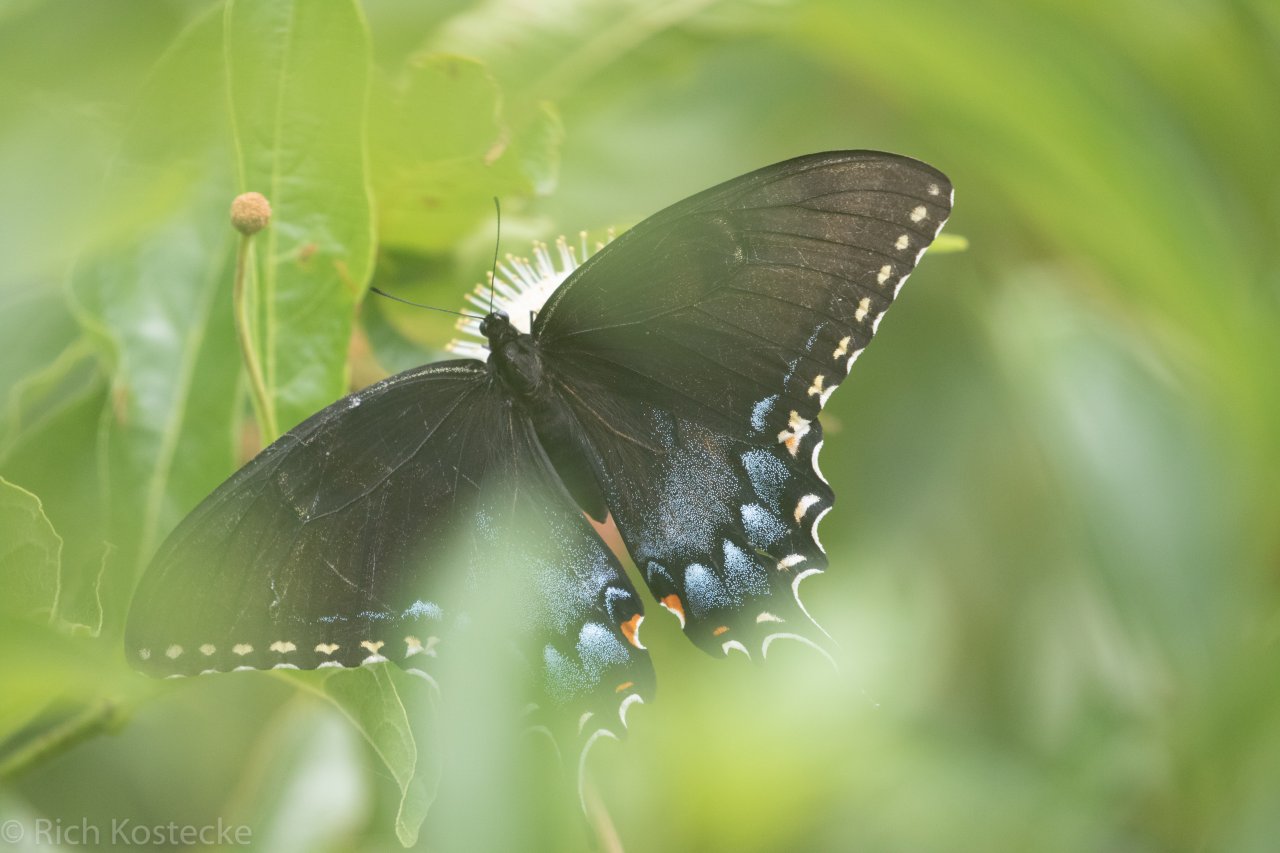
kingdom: Animalia
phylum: Arthropoda
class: Insecta
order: Lepidoptera
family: Papilionidae
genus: Pterourus
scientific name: Pterourus glaucus
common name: Eastern Tiger Swallowtail
